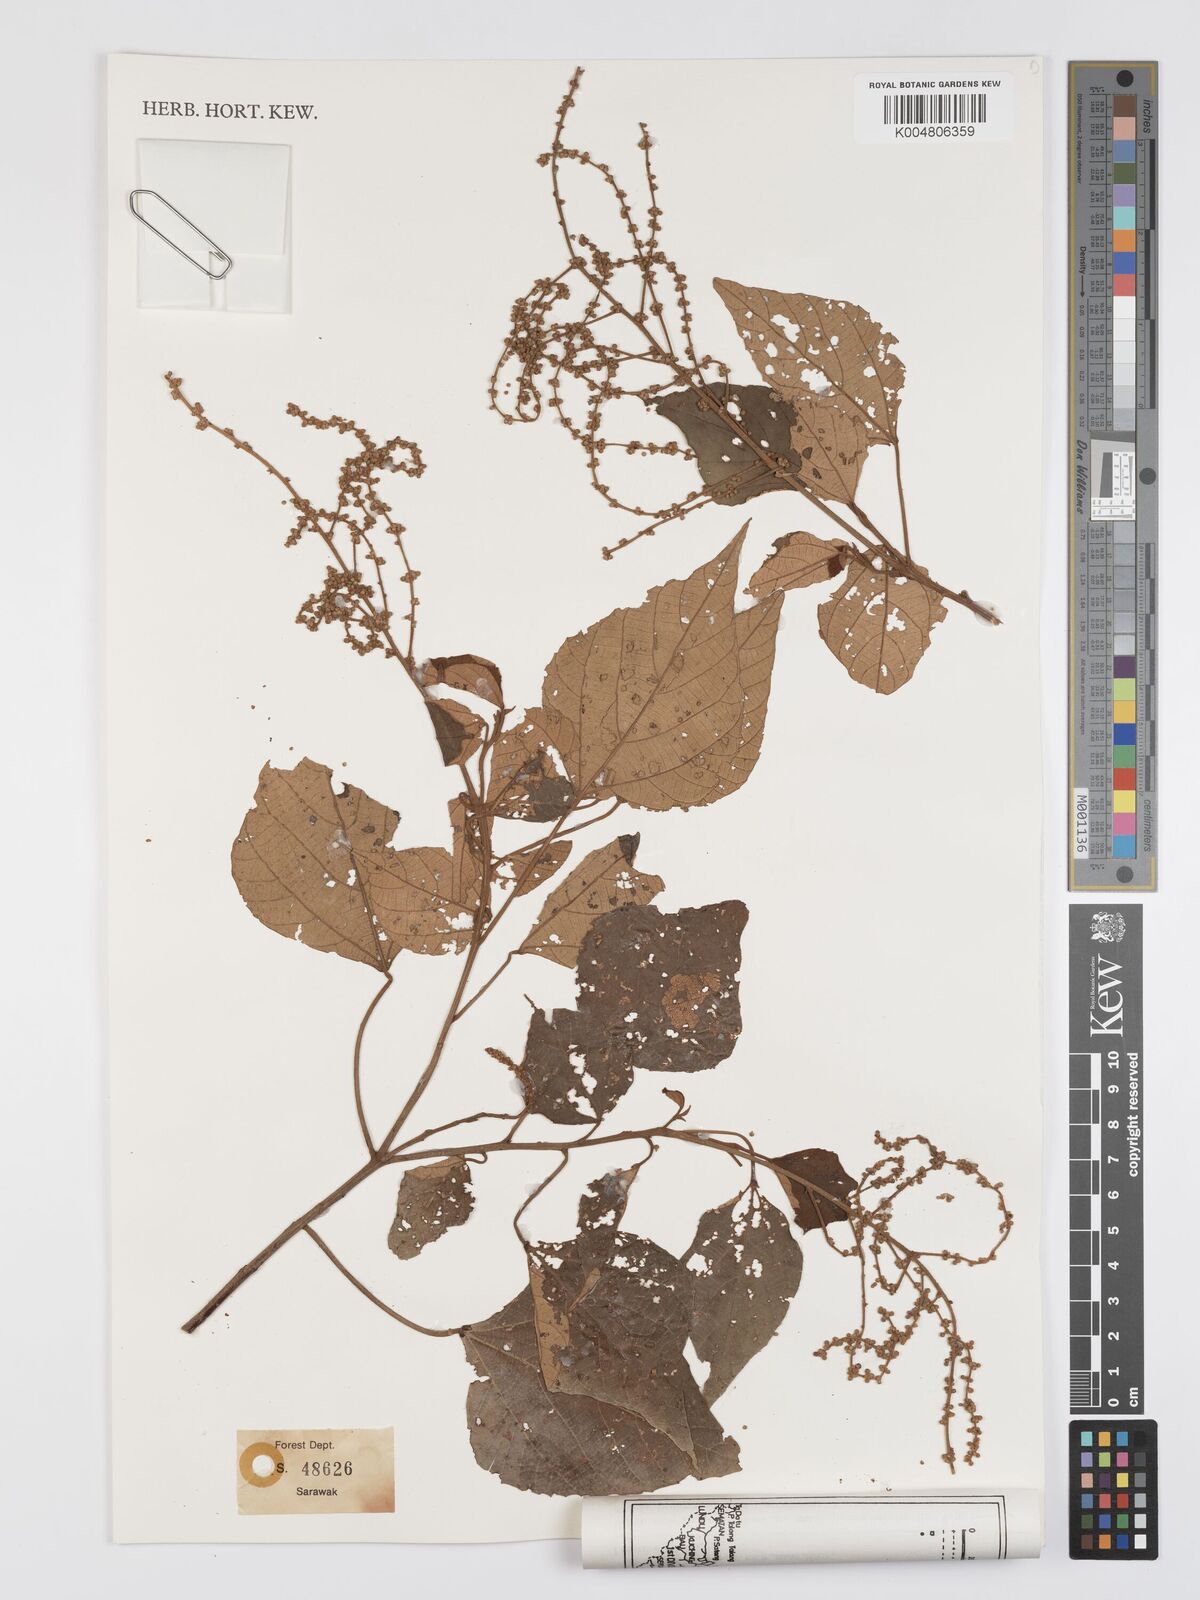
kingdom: Plantae
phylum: Tracheophyta
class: Magnoliopsida
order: Malpighiales
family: Euphorbiaceae
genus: Mallotus
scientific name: Mallotus paniculatus
